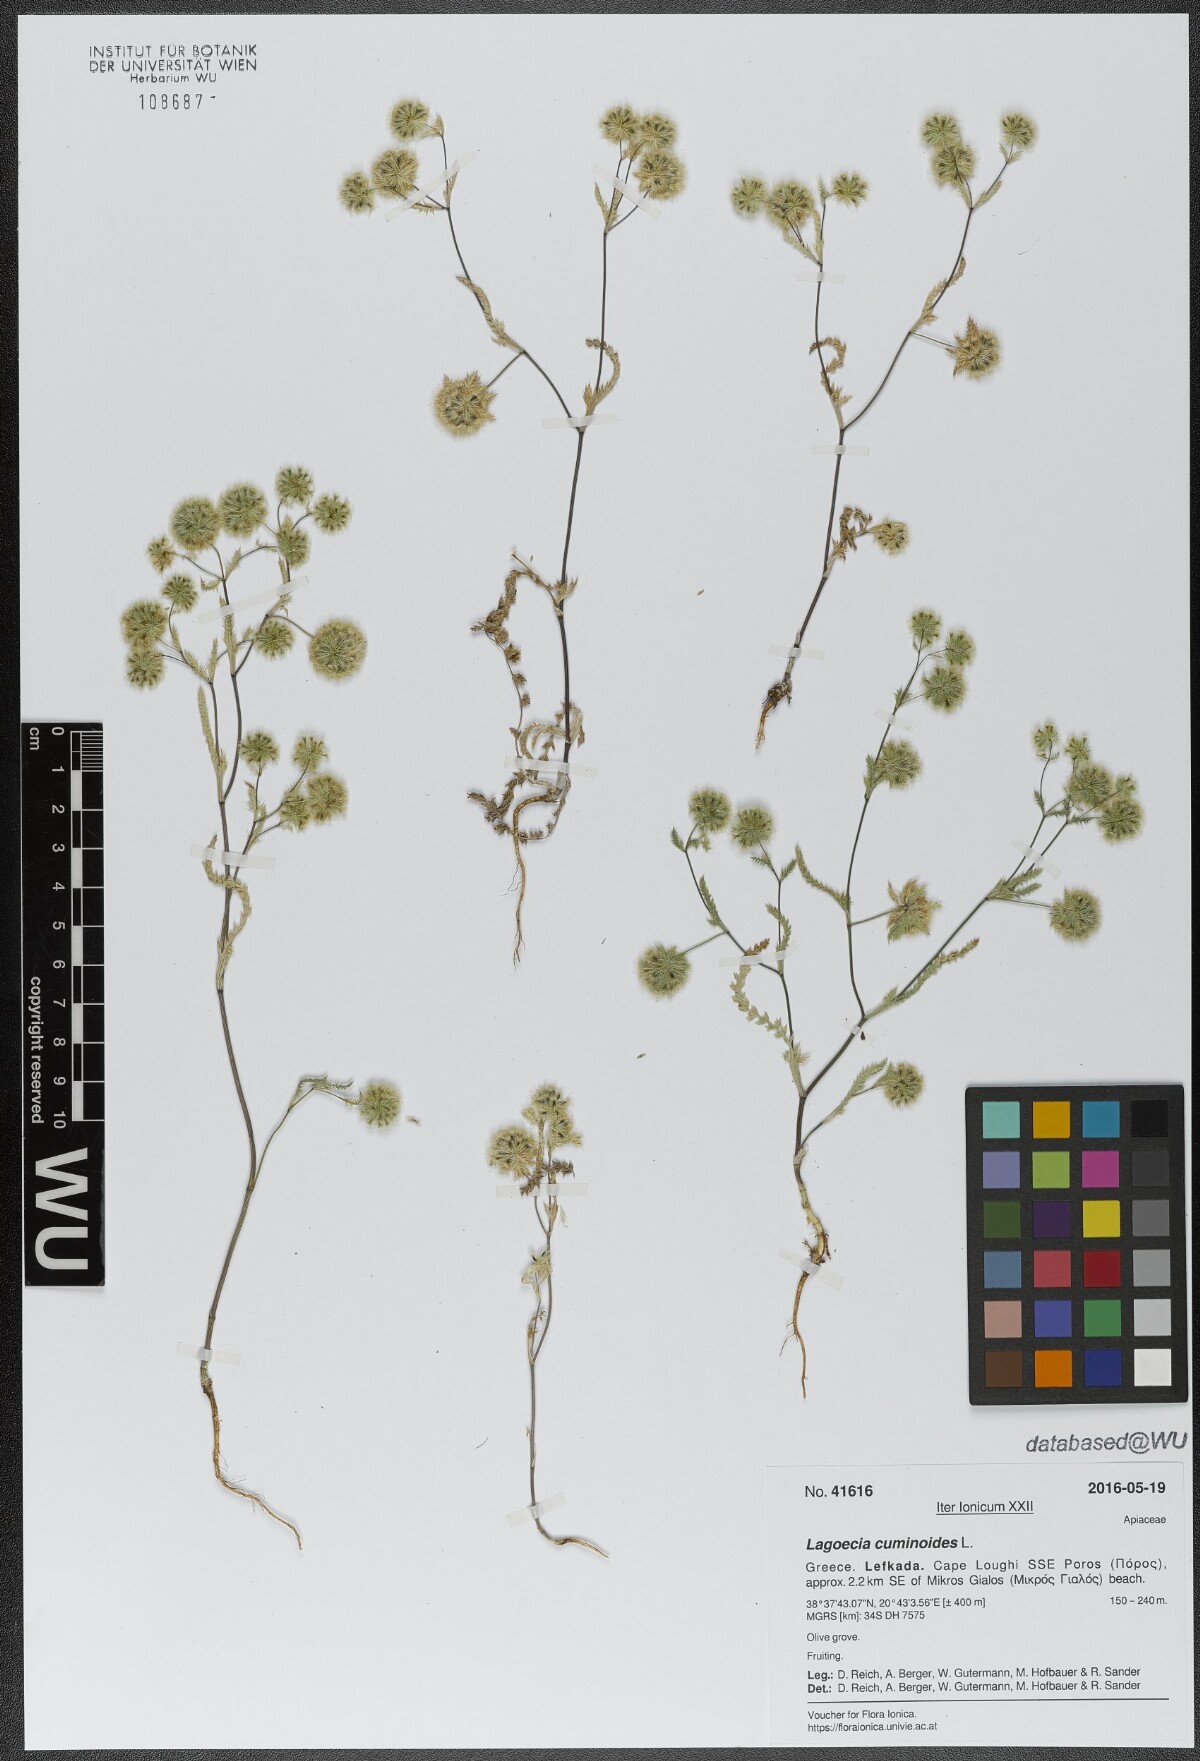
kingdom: Plantae
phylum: Tracheophyta
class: Magnoliopsida
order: Apiales
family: Apiaceae
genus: Lagoecia
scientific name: Lagoecia cuminoides
